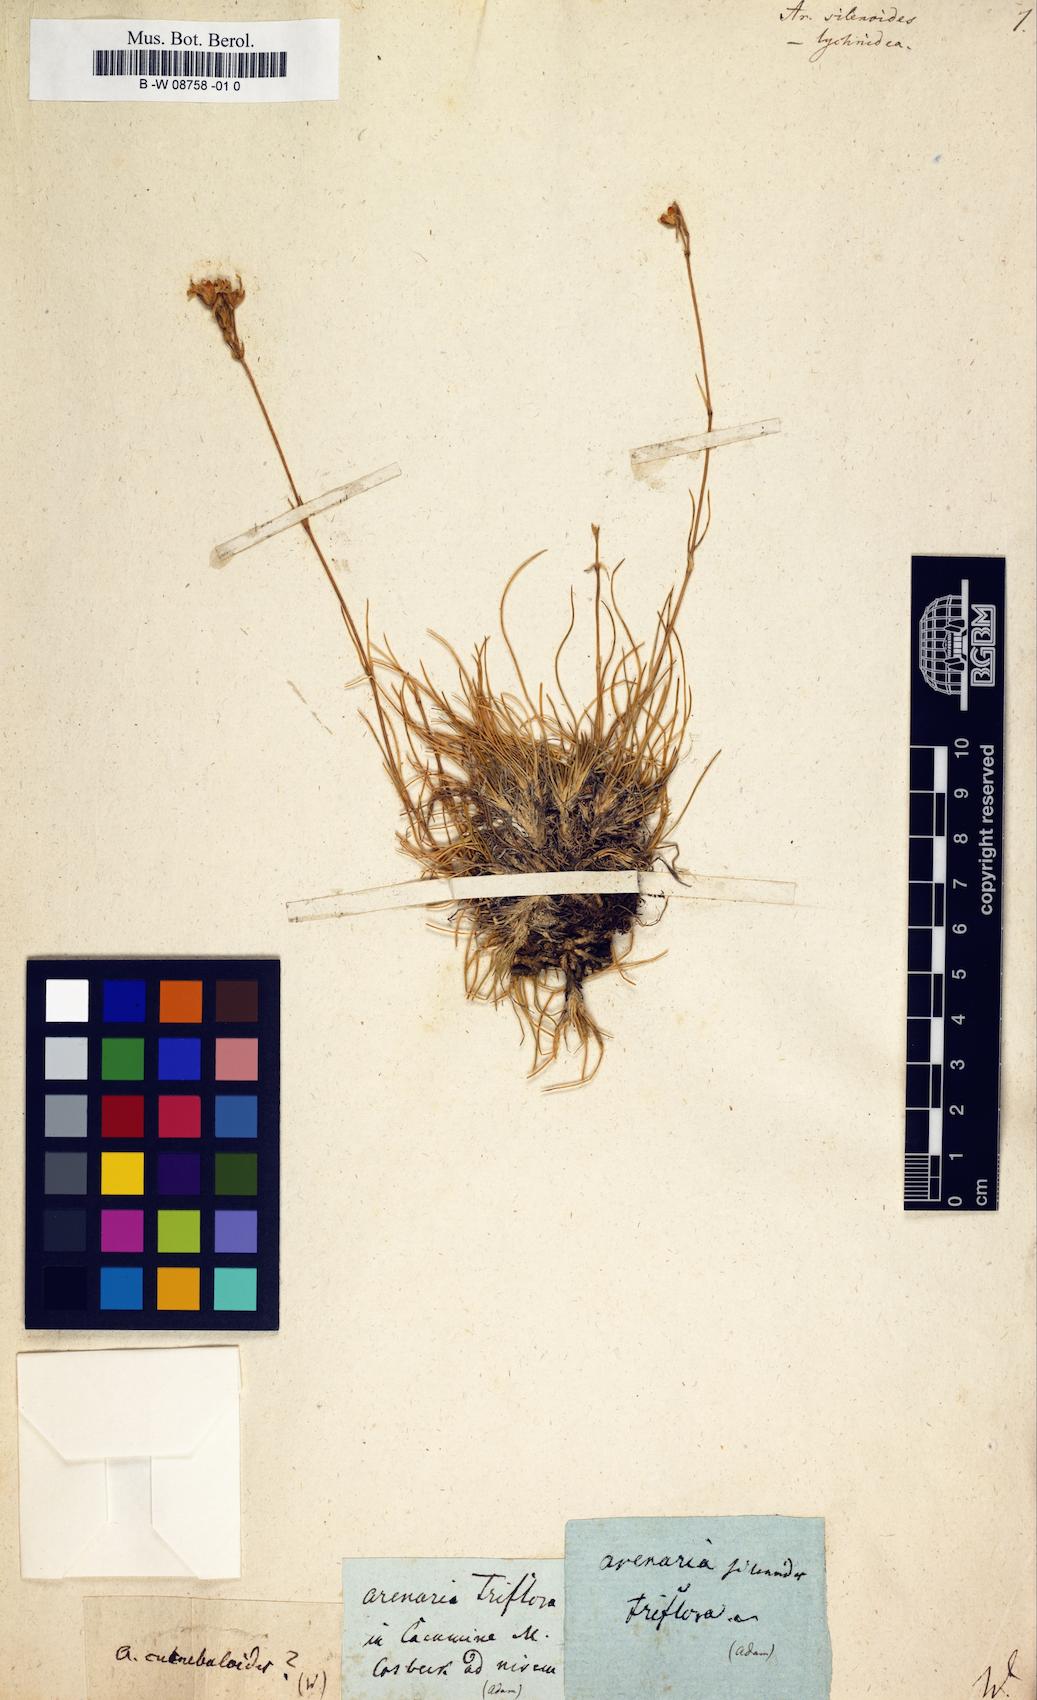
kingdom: Plantae
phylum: Tracheophyta
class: Magnoliopsida
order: Caryophyllales
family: Caryophyllaceae
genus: Arenaria
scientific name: Arenaria
